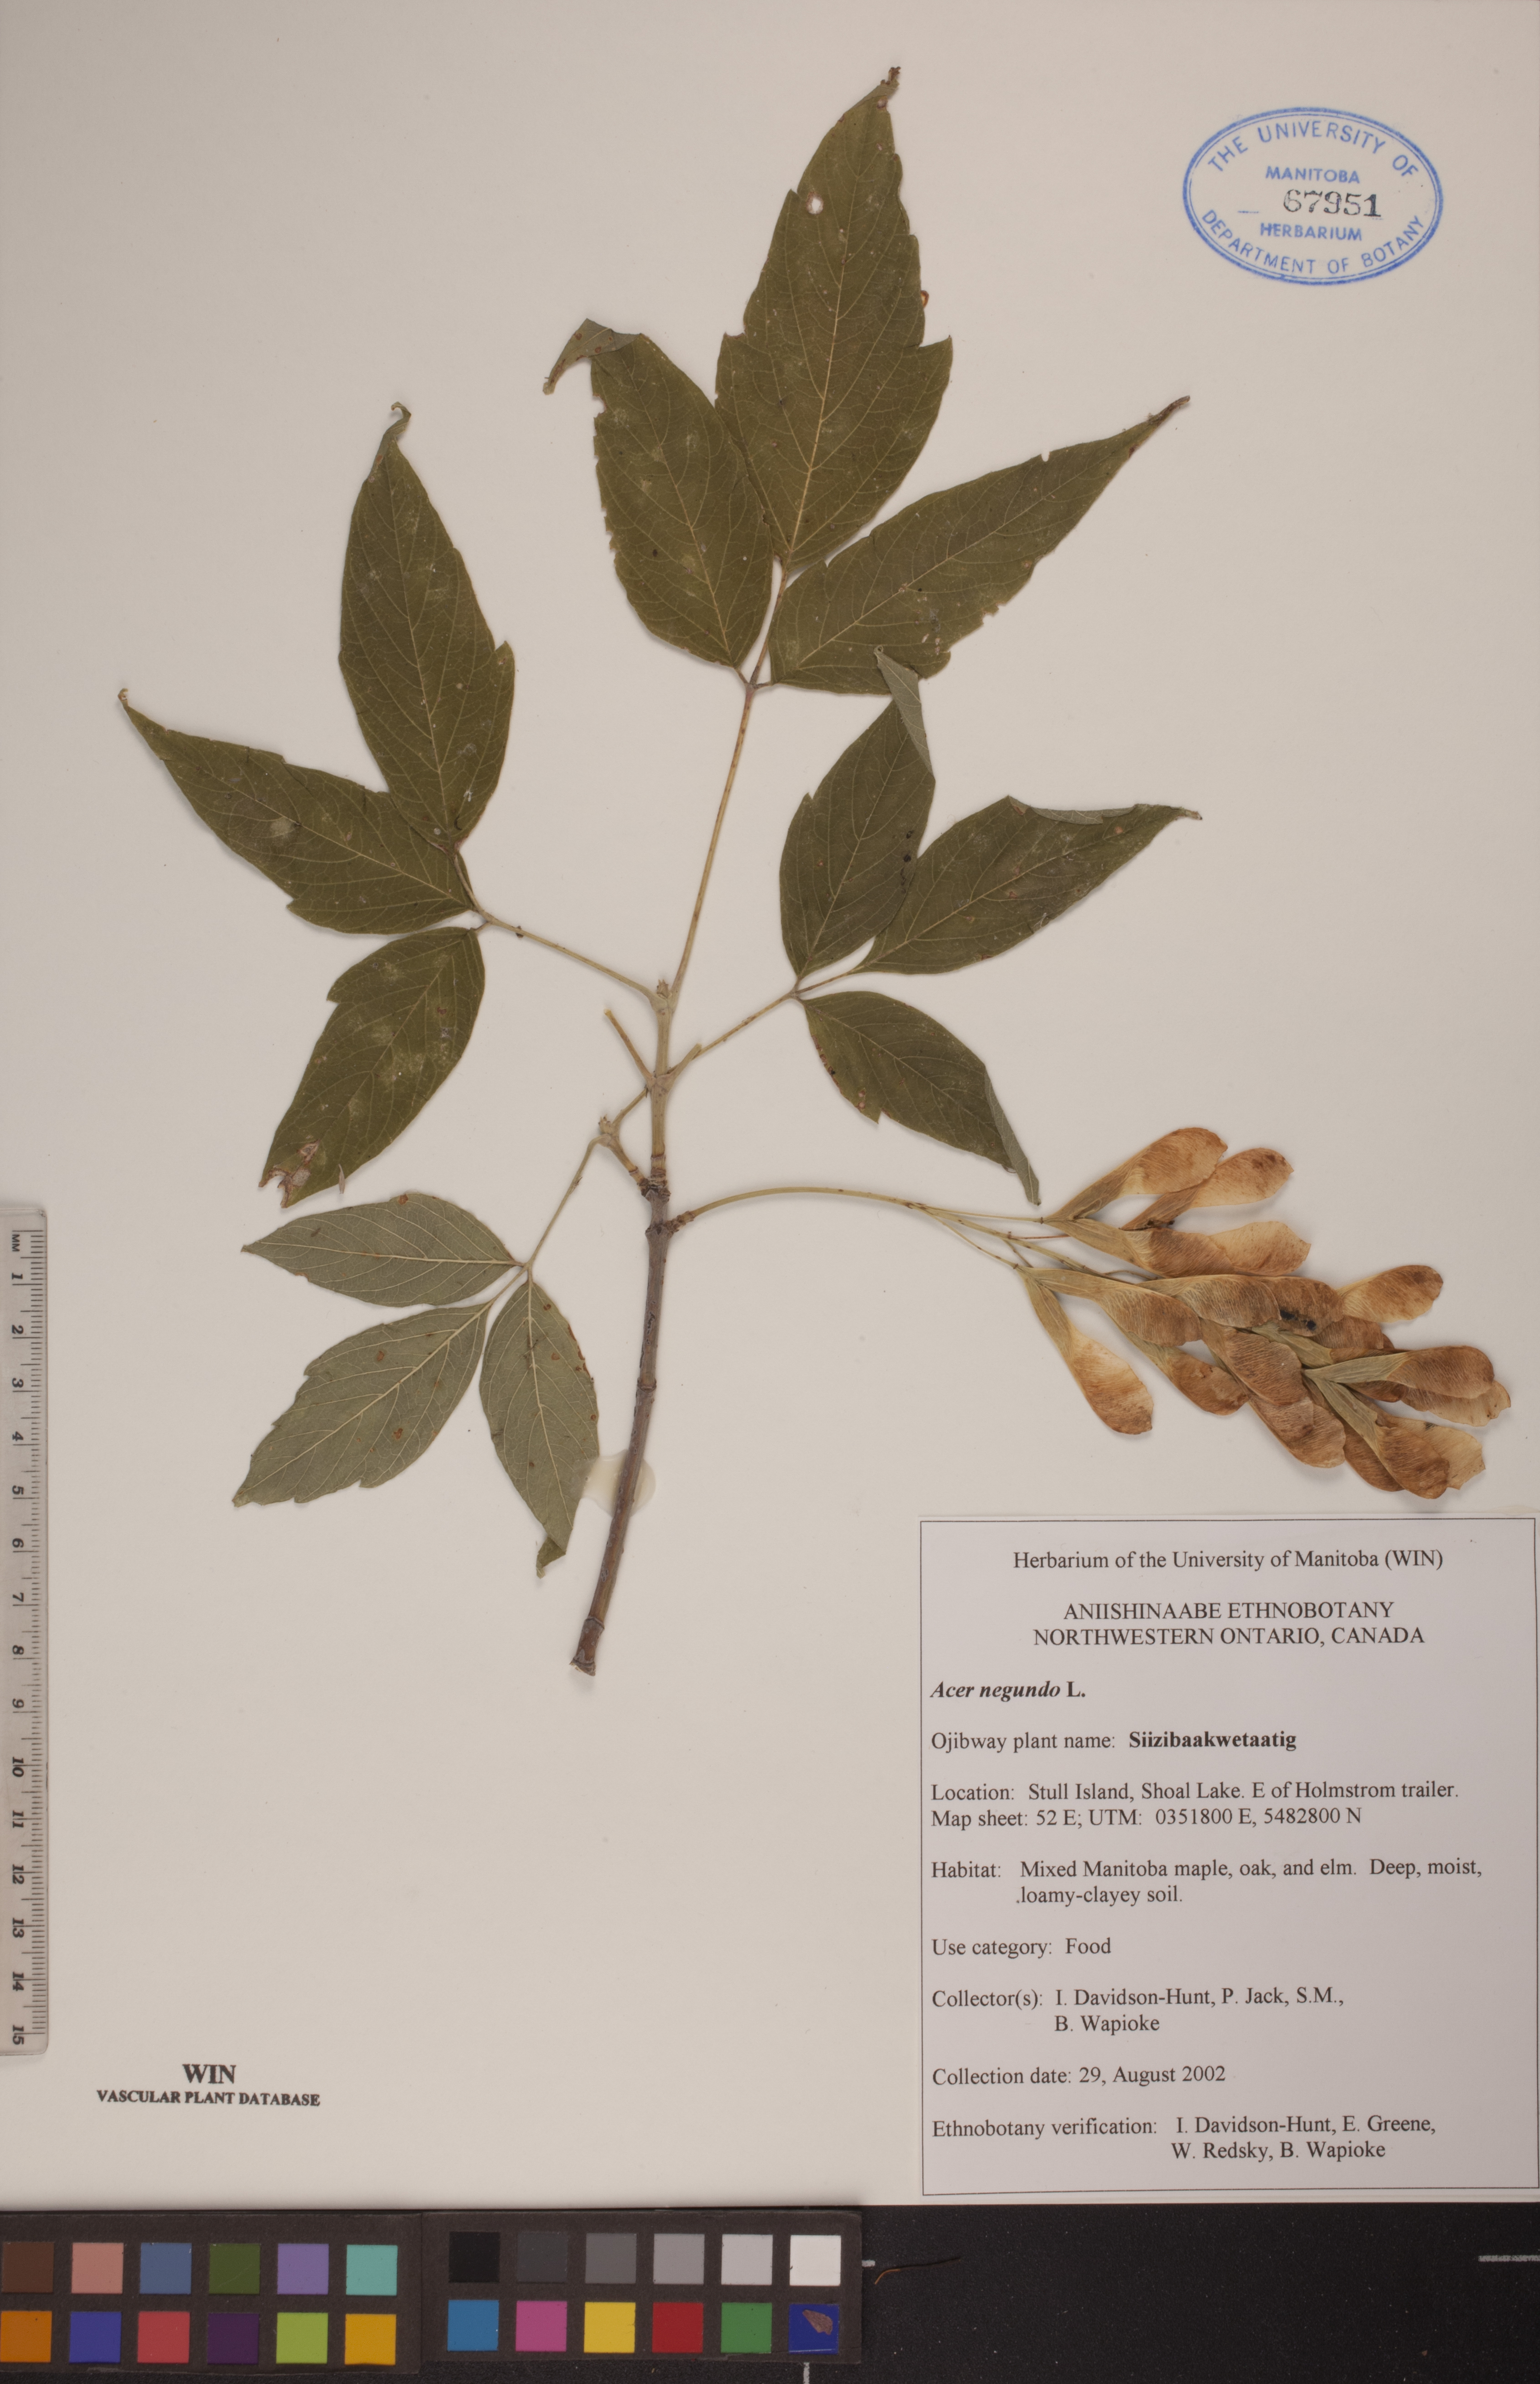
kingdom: Plantae
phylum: Tracheophyta
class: Magnoliopsida
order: Sapindales
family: Sapindaceae
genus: Acer
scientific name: Acer negundo
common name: Ashleaf maple
